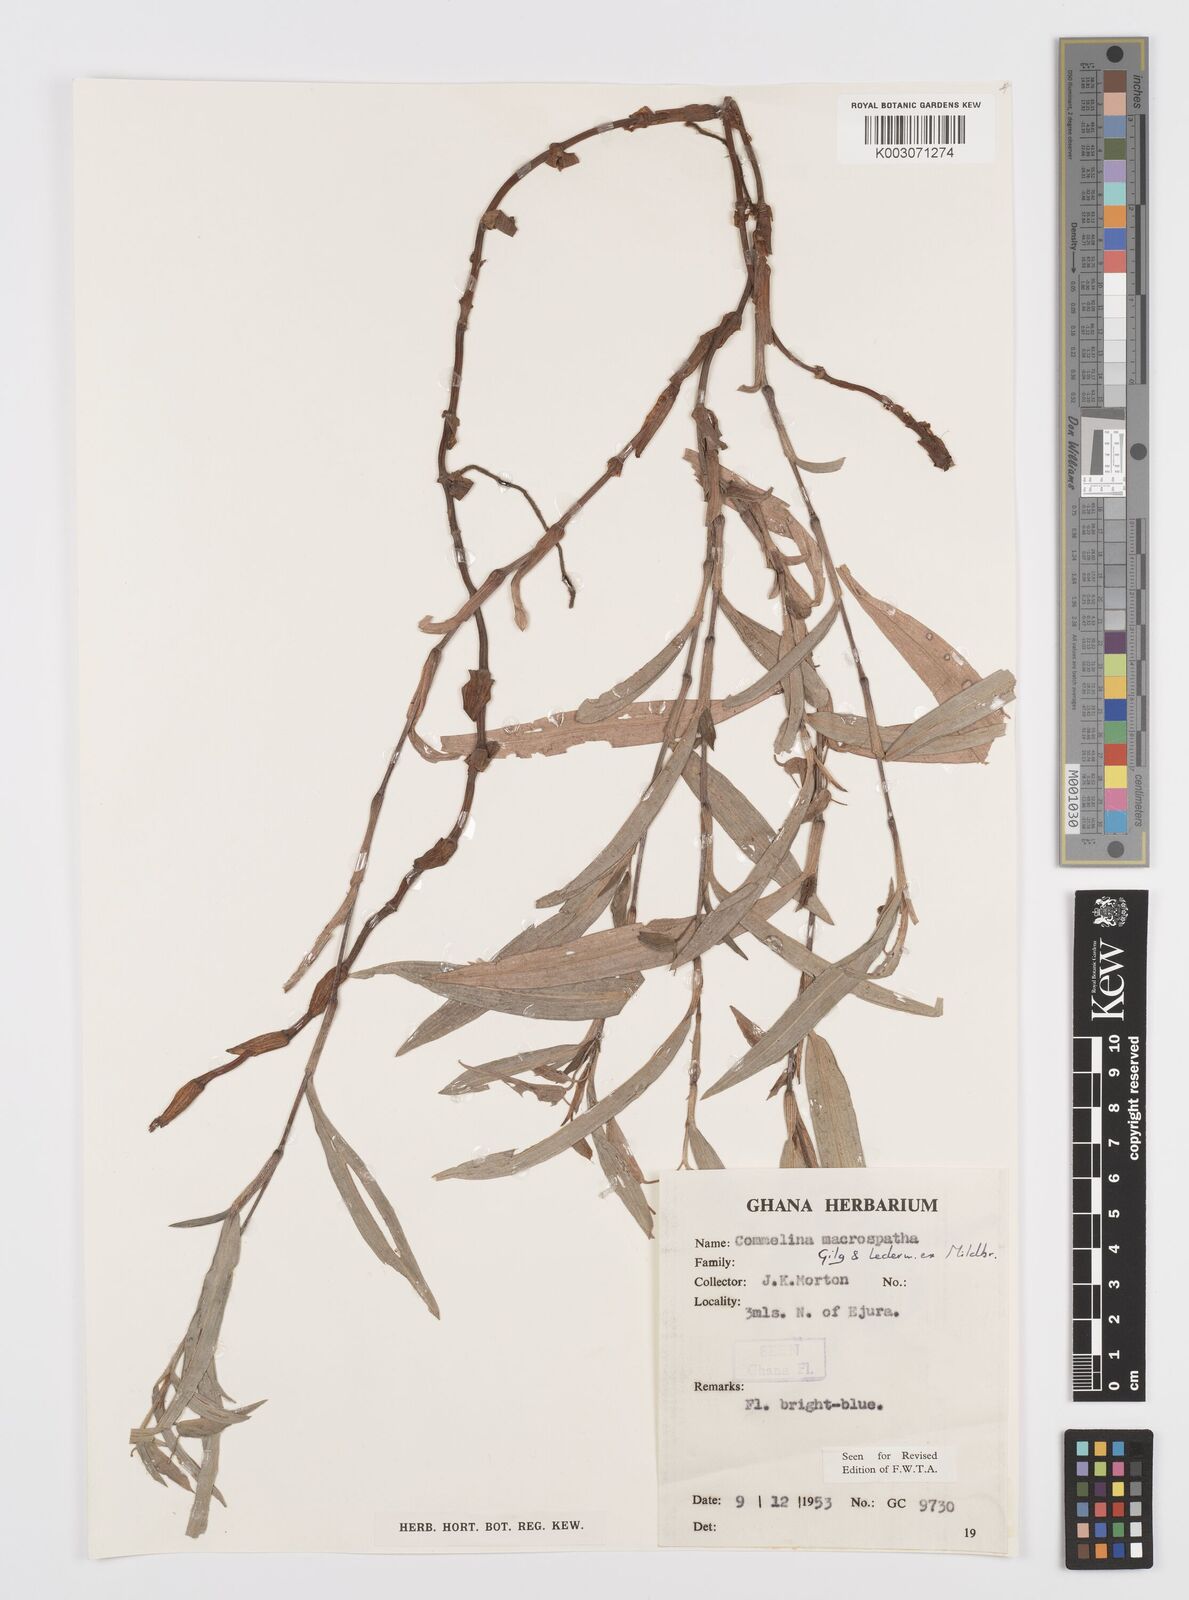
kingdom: Plantae
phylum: Tracheophyta
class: Liliopsida
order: Commelinales
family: Commelinaceae
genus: Commelina
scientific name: Commelina macrospatha
